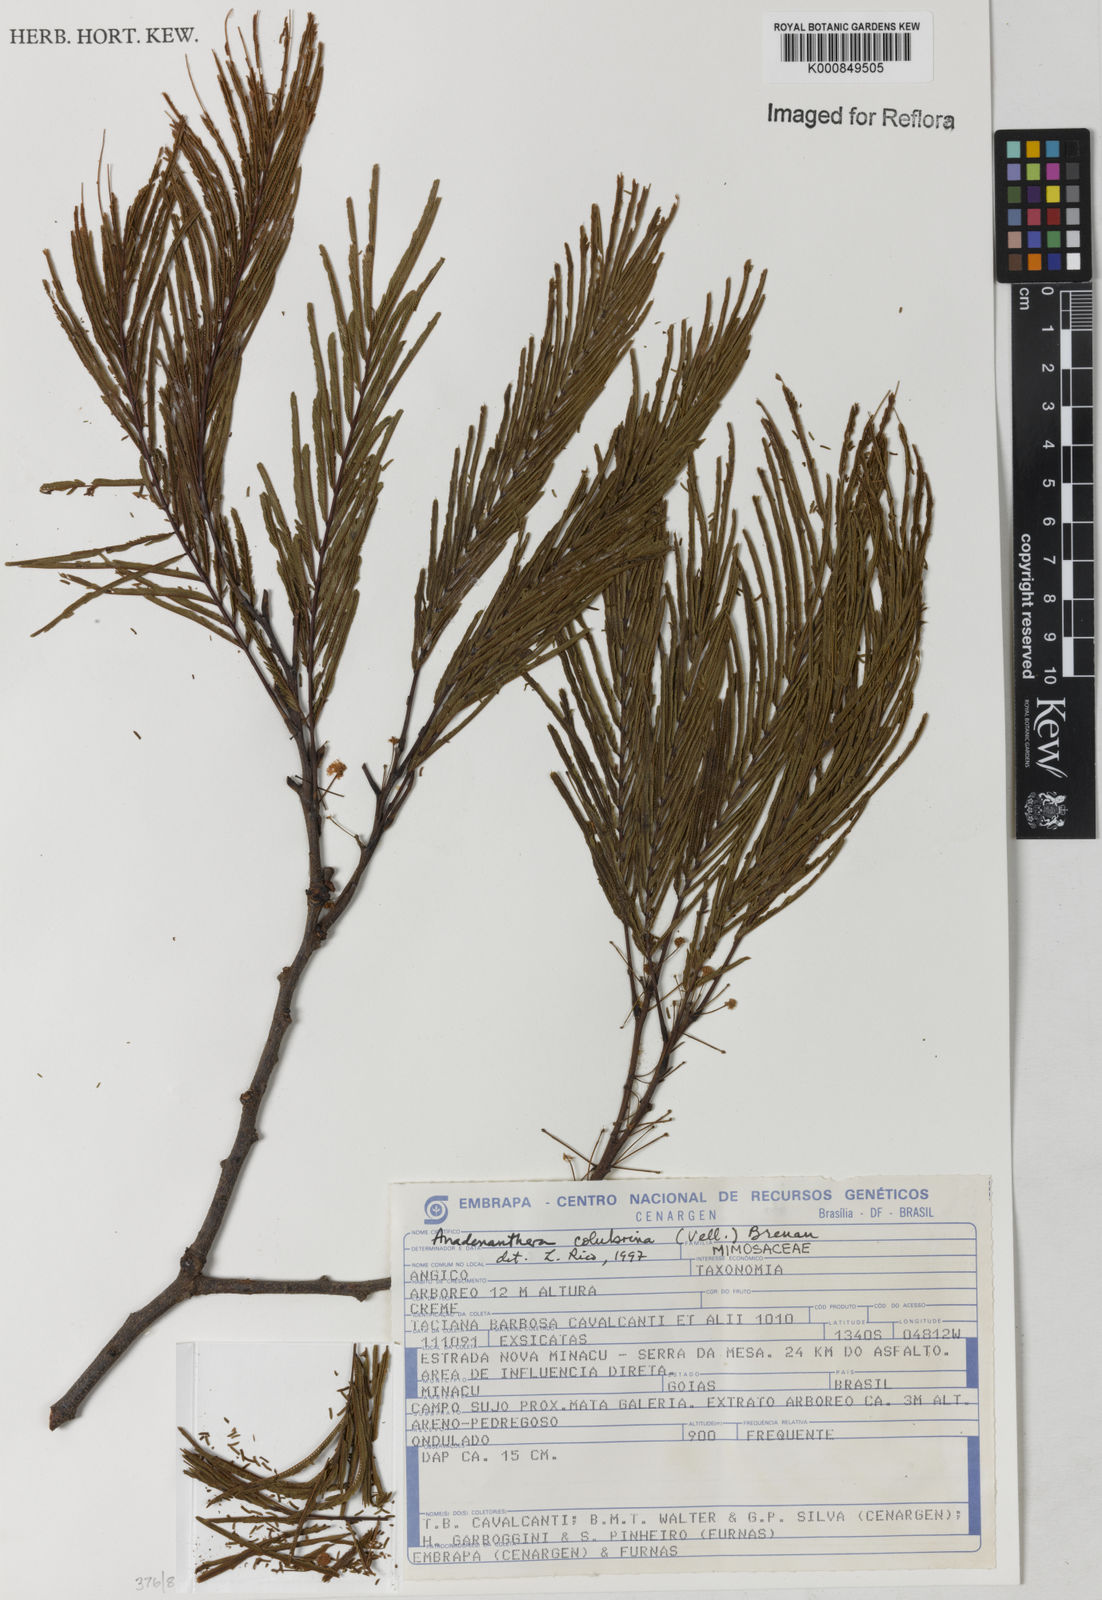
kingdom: Plantae
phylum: Tracheophyta
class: Magnoliopsida
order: Fabales
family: Fabaceae
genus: Anadenanthera
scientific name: Anadenanthera colubrina
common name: Curupay
